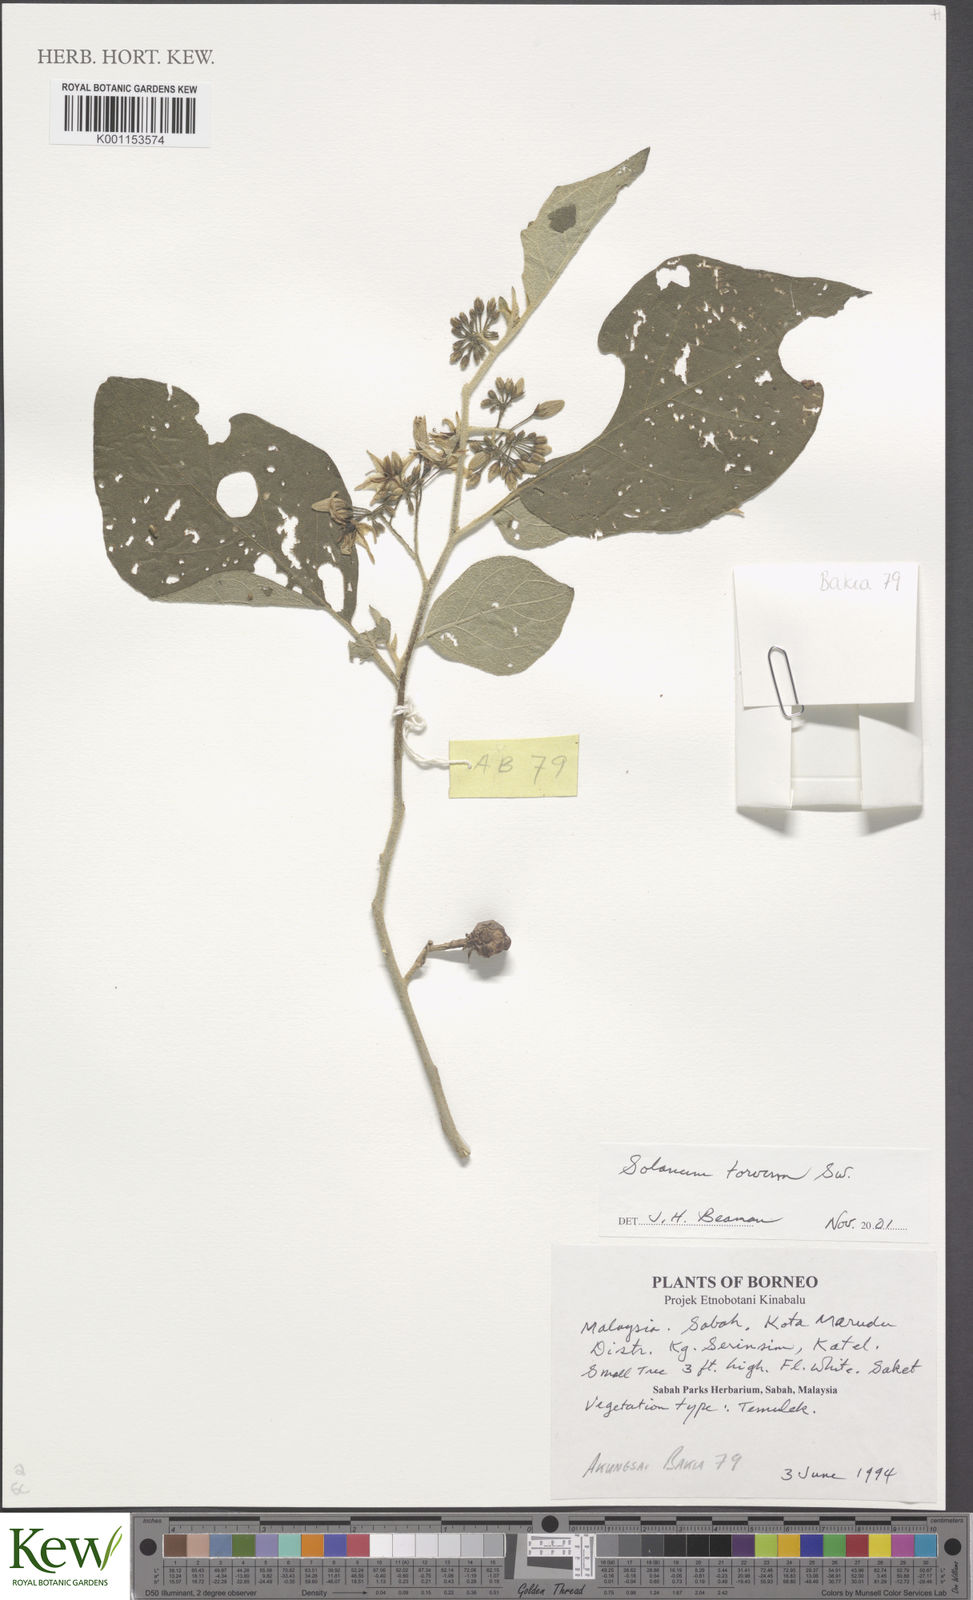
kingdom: Plantae
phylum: Tracheophyta
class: Magnoliopsida
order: Solanales
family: Solanaceae
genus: Solanum
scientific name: Solanum torvum
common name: Turkey berry
